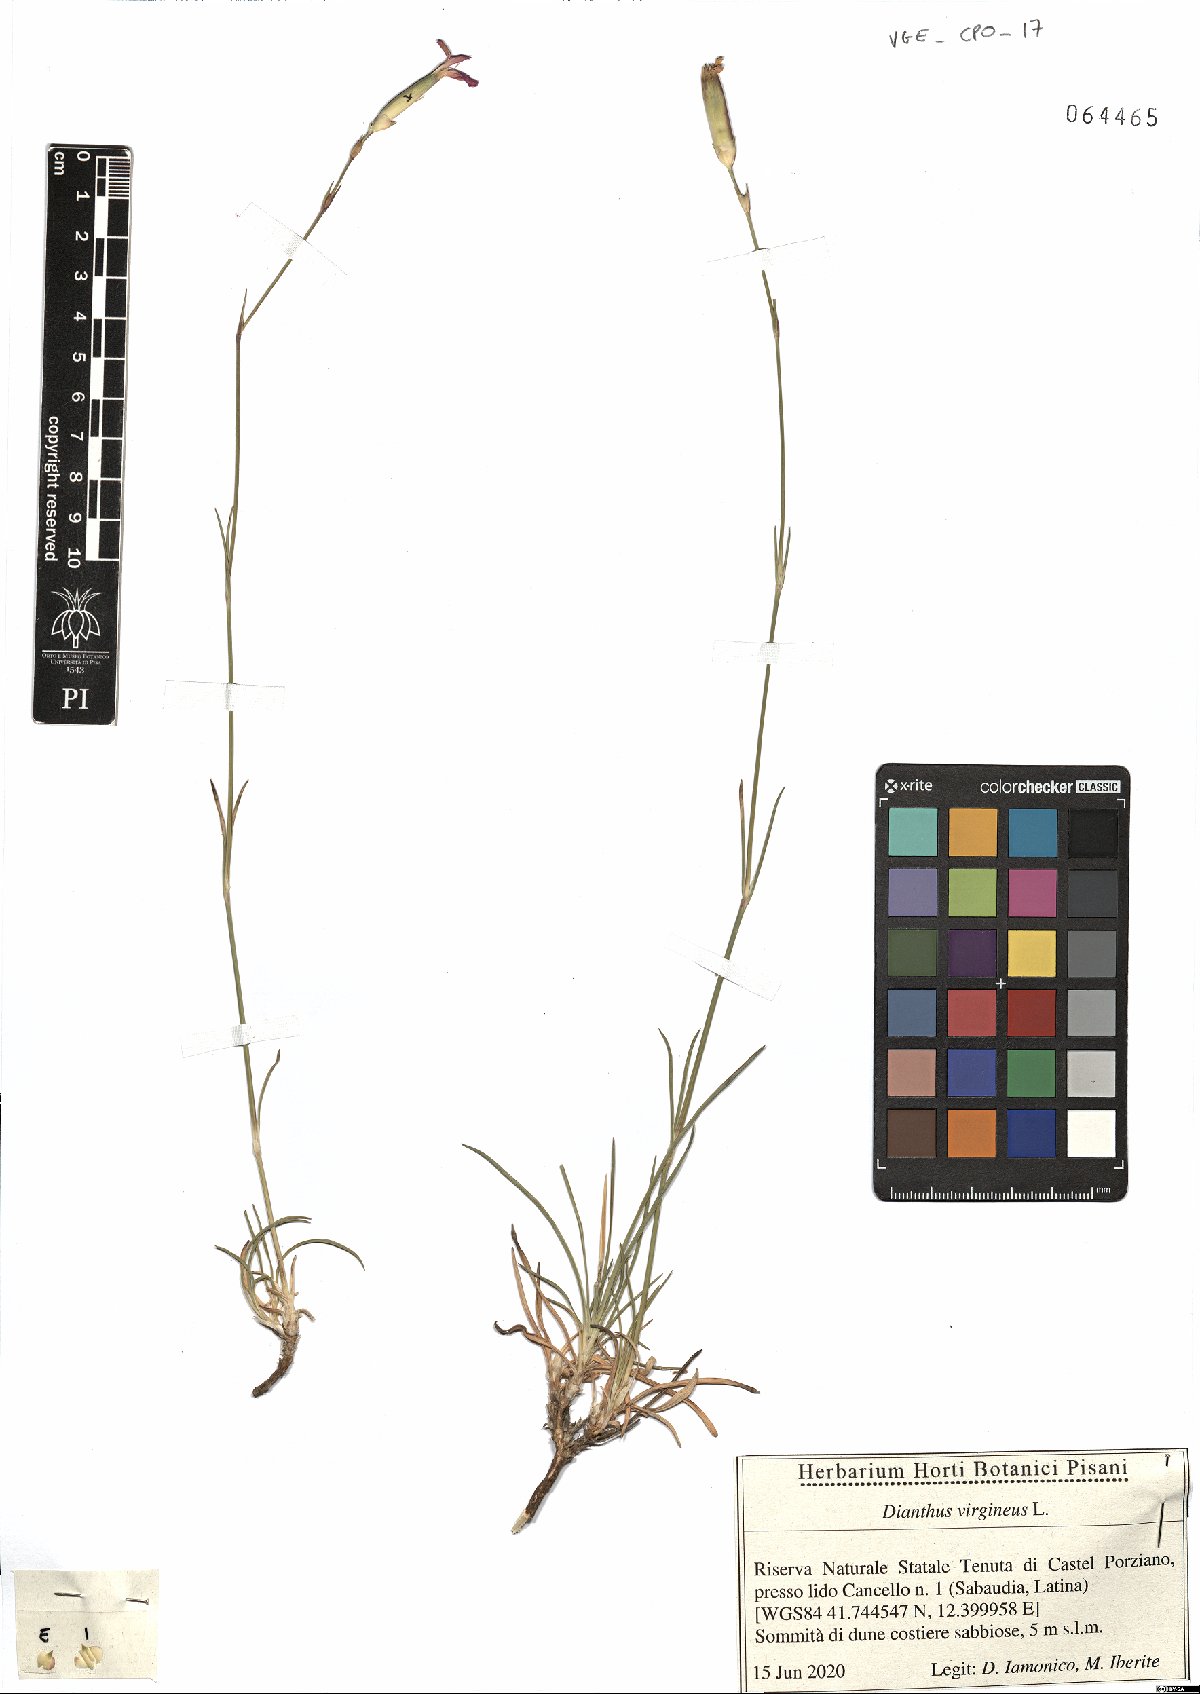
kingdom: Plantae
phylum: Tracheophyta
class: Magnoliopsida
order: Caryophyllales
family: Caryophyllaceae
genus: Dianthus
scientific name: Dianthus virgineus
